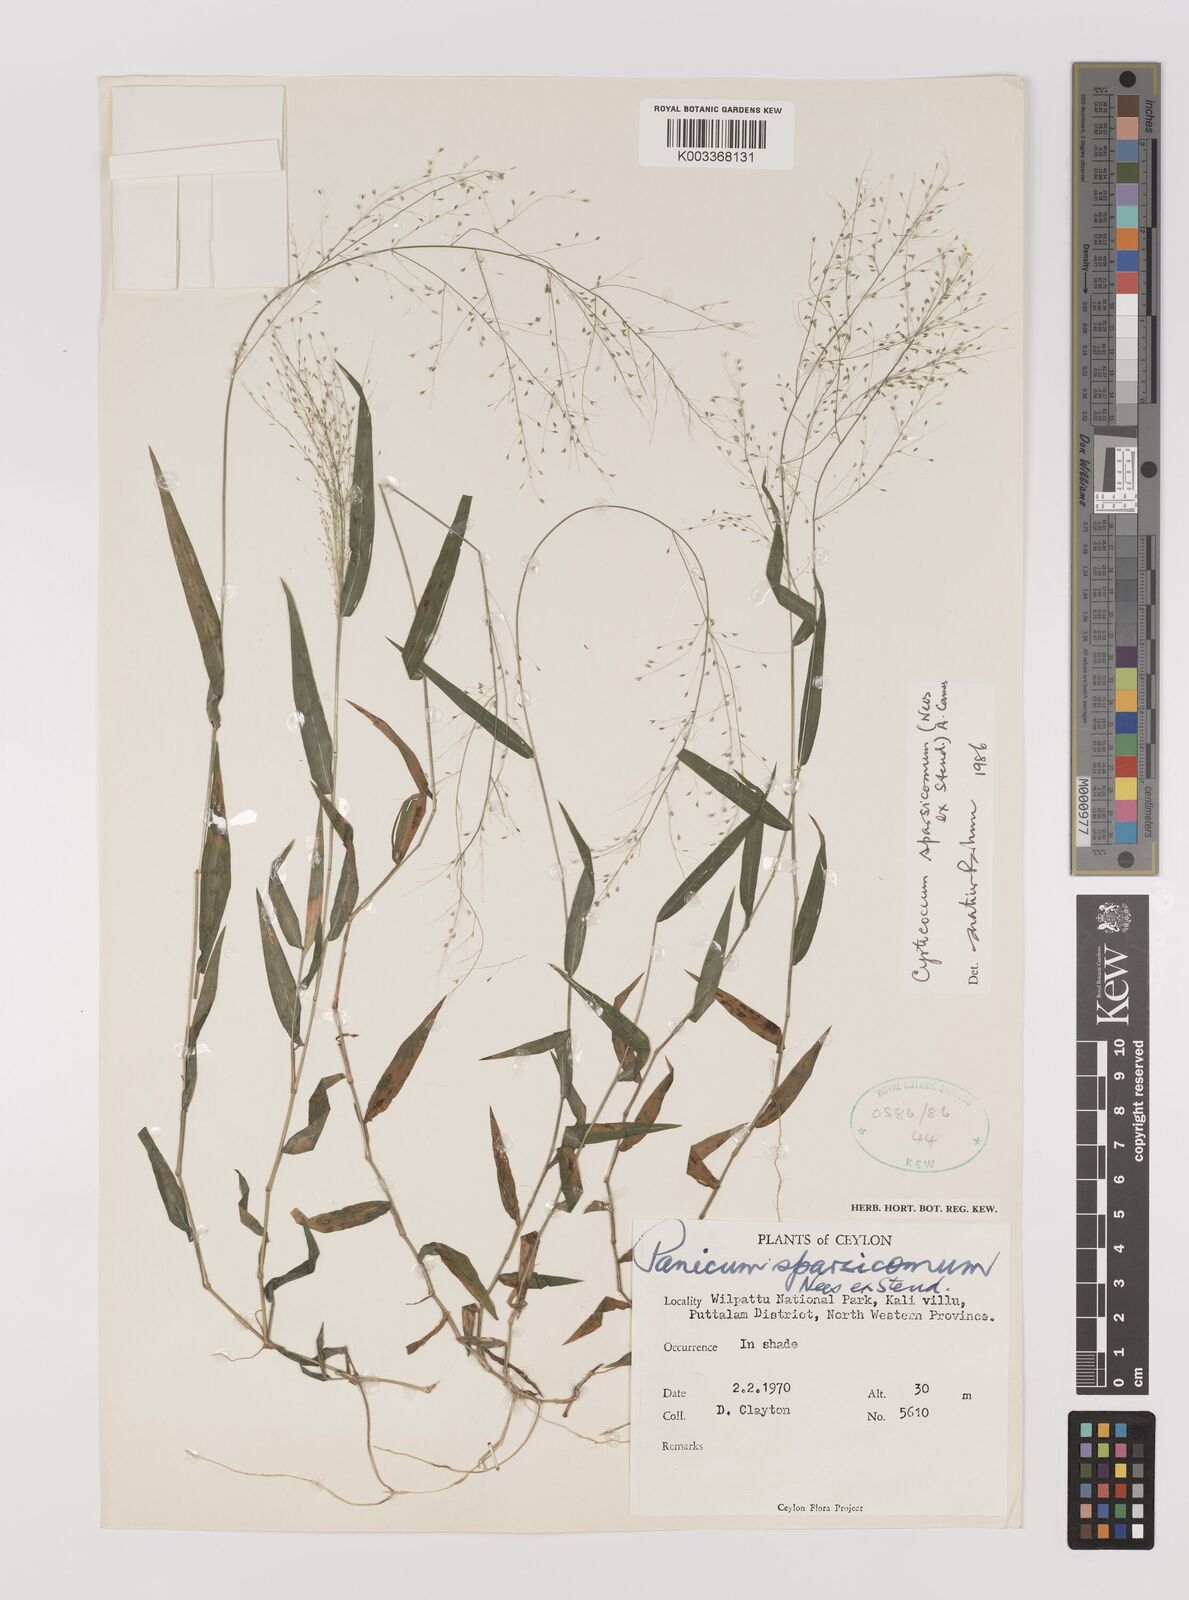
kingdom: Plantae
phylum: Tracheophyta
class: Liliopsida
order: Poales
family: Poaceae
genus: Panicum
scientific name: Panicum sparsicomum
